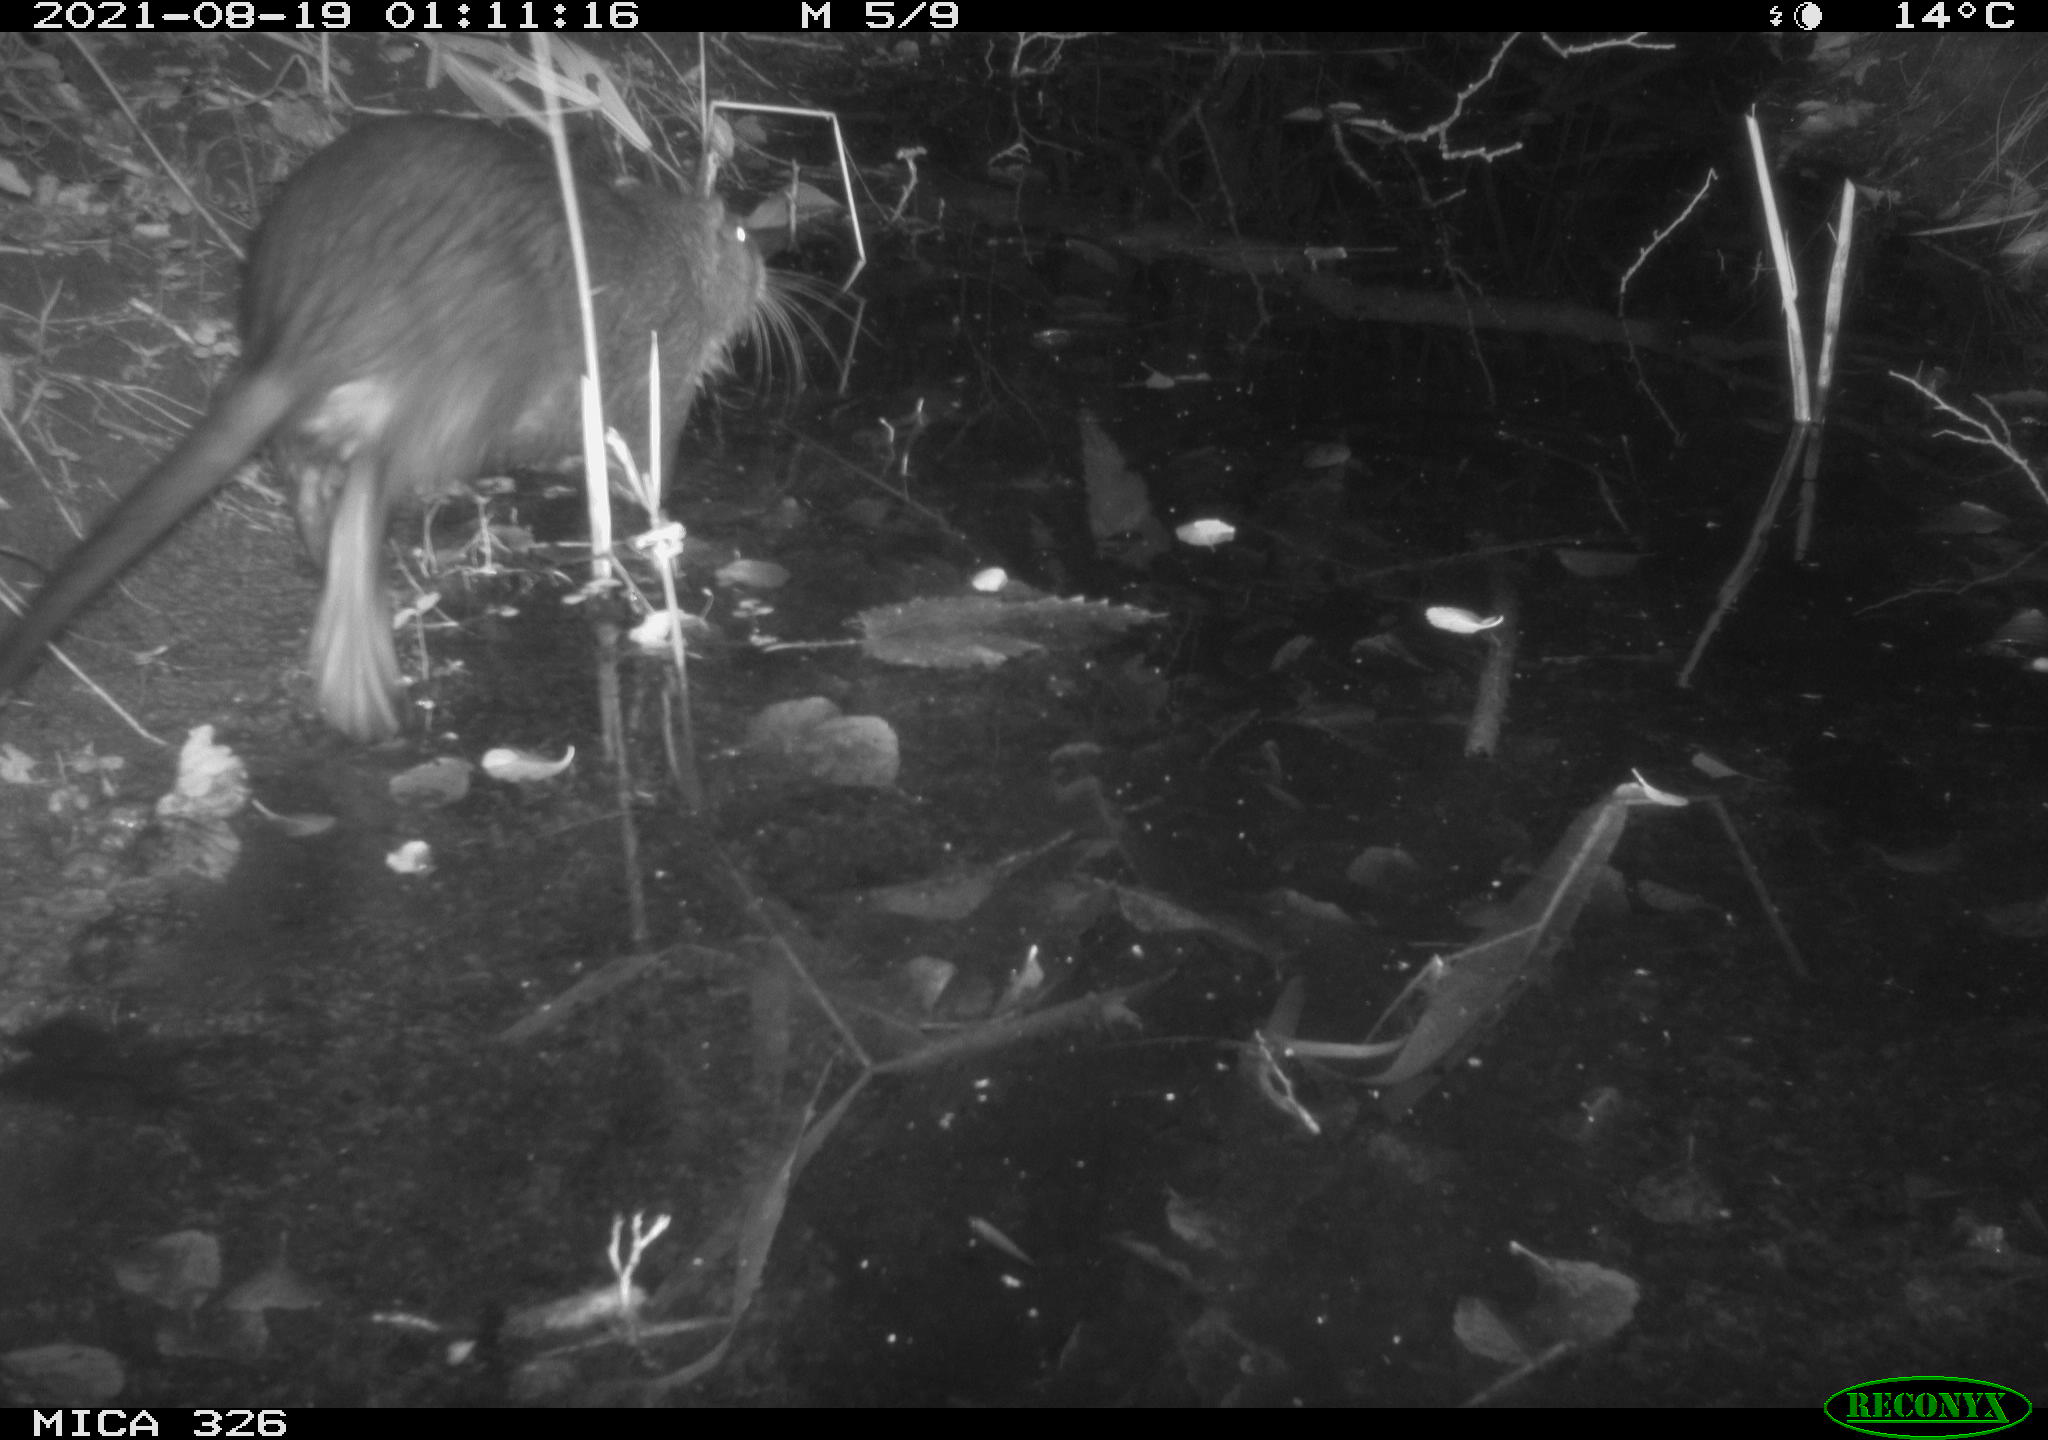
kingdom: Animalia
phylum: Chordata
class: Mammalia
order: Rodentia
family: Myocastoridae
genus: Myocastor
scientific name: Myocastor coypus
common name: Coypu
